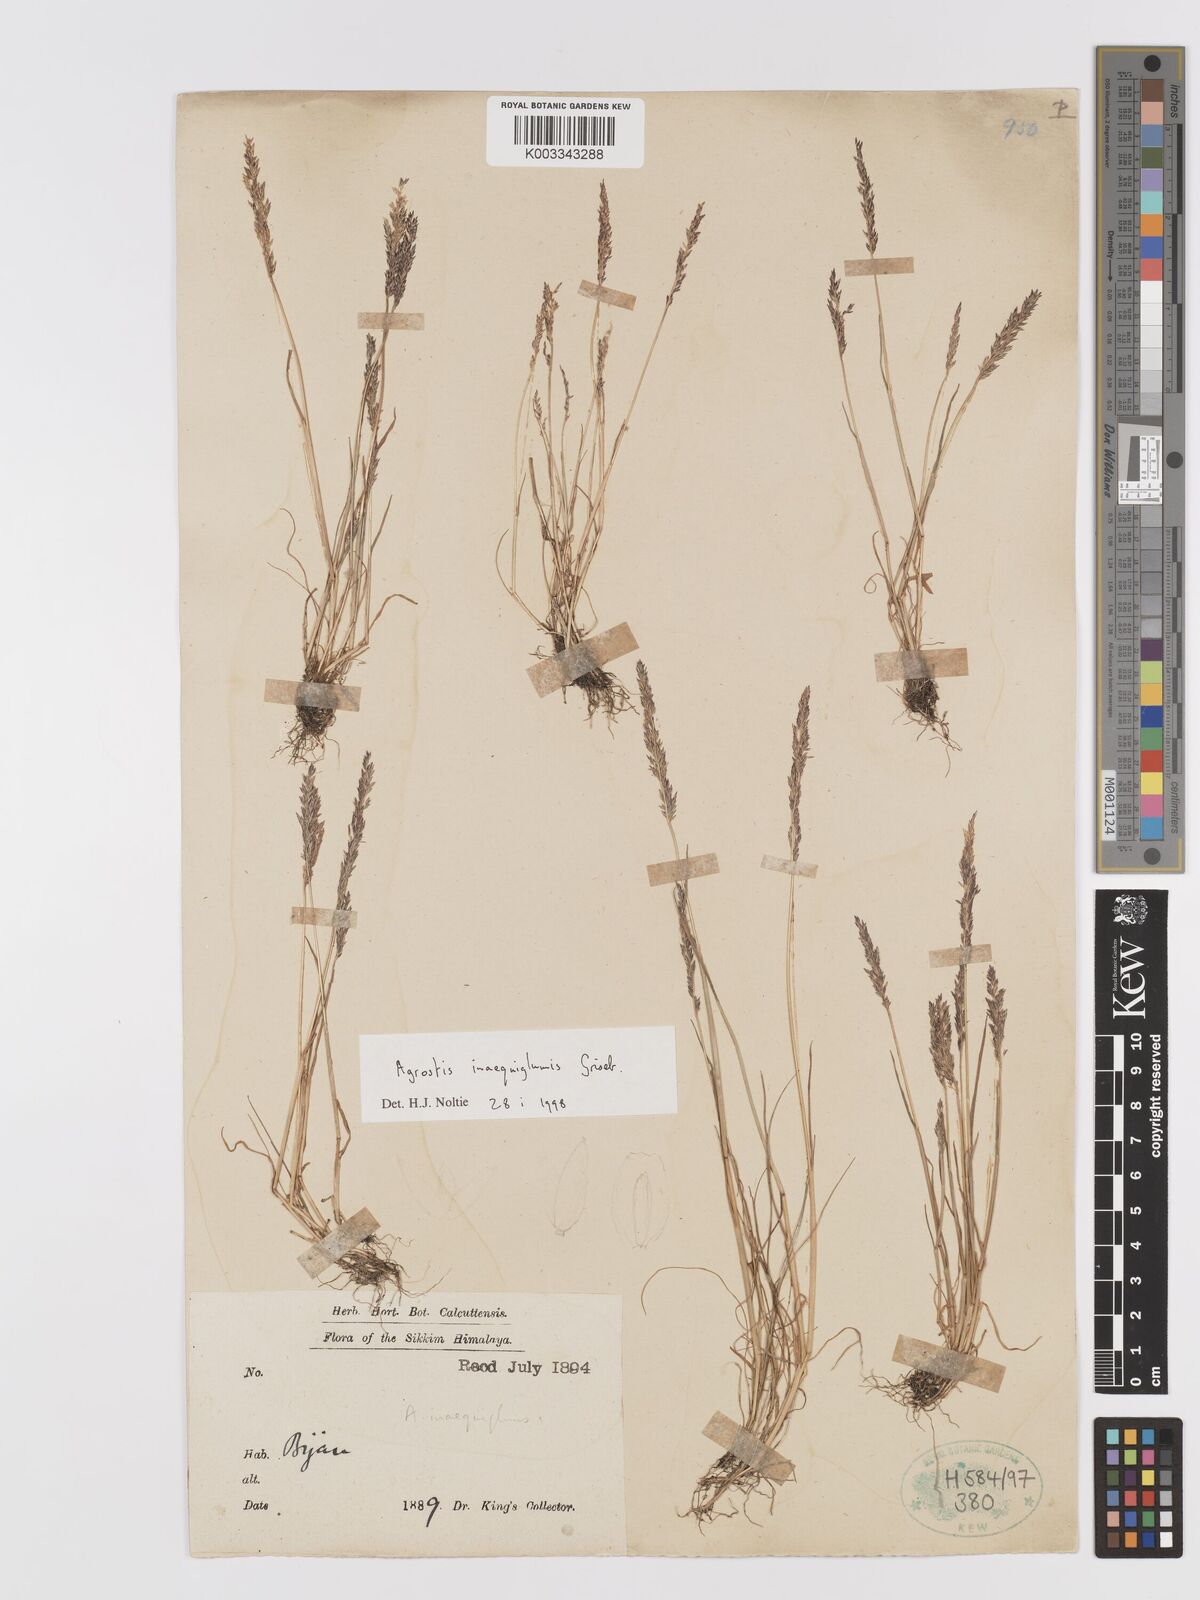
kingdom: Plantae
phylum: Tracheophyta
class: Liliopsida
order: Poales
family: Poaceae
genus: Agrostis
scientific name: Agrostis
